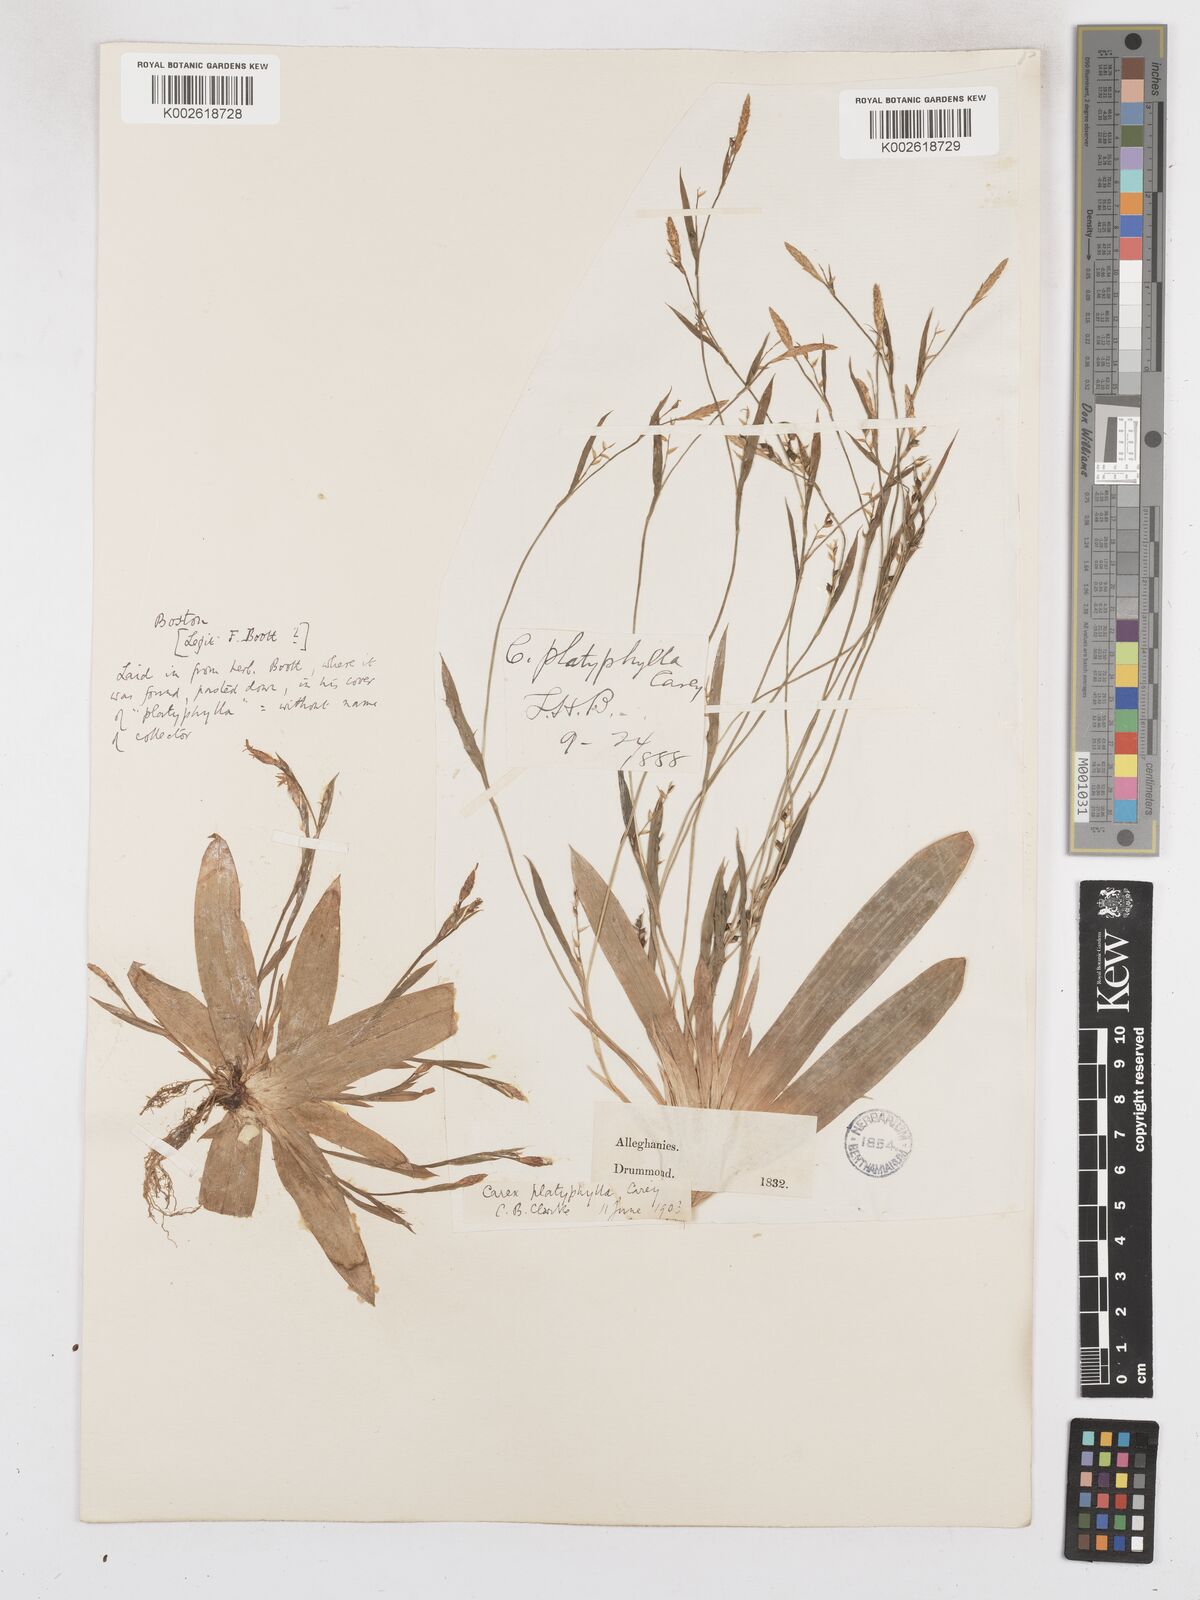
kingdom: Plantae
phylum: Tracheophyta
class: Liliopsida
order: Poales
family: Cyperaceae
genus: Carex
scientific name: Carex platyphylla
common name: Broad-leaved sedge
